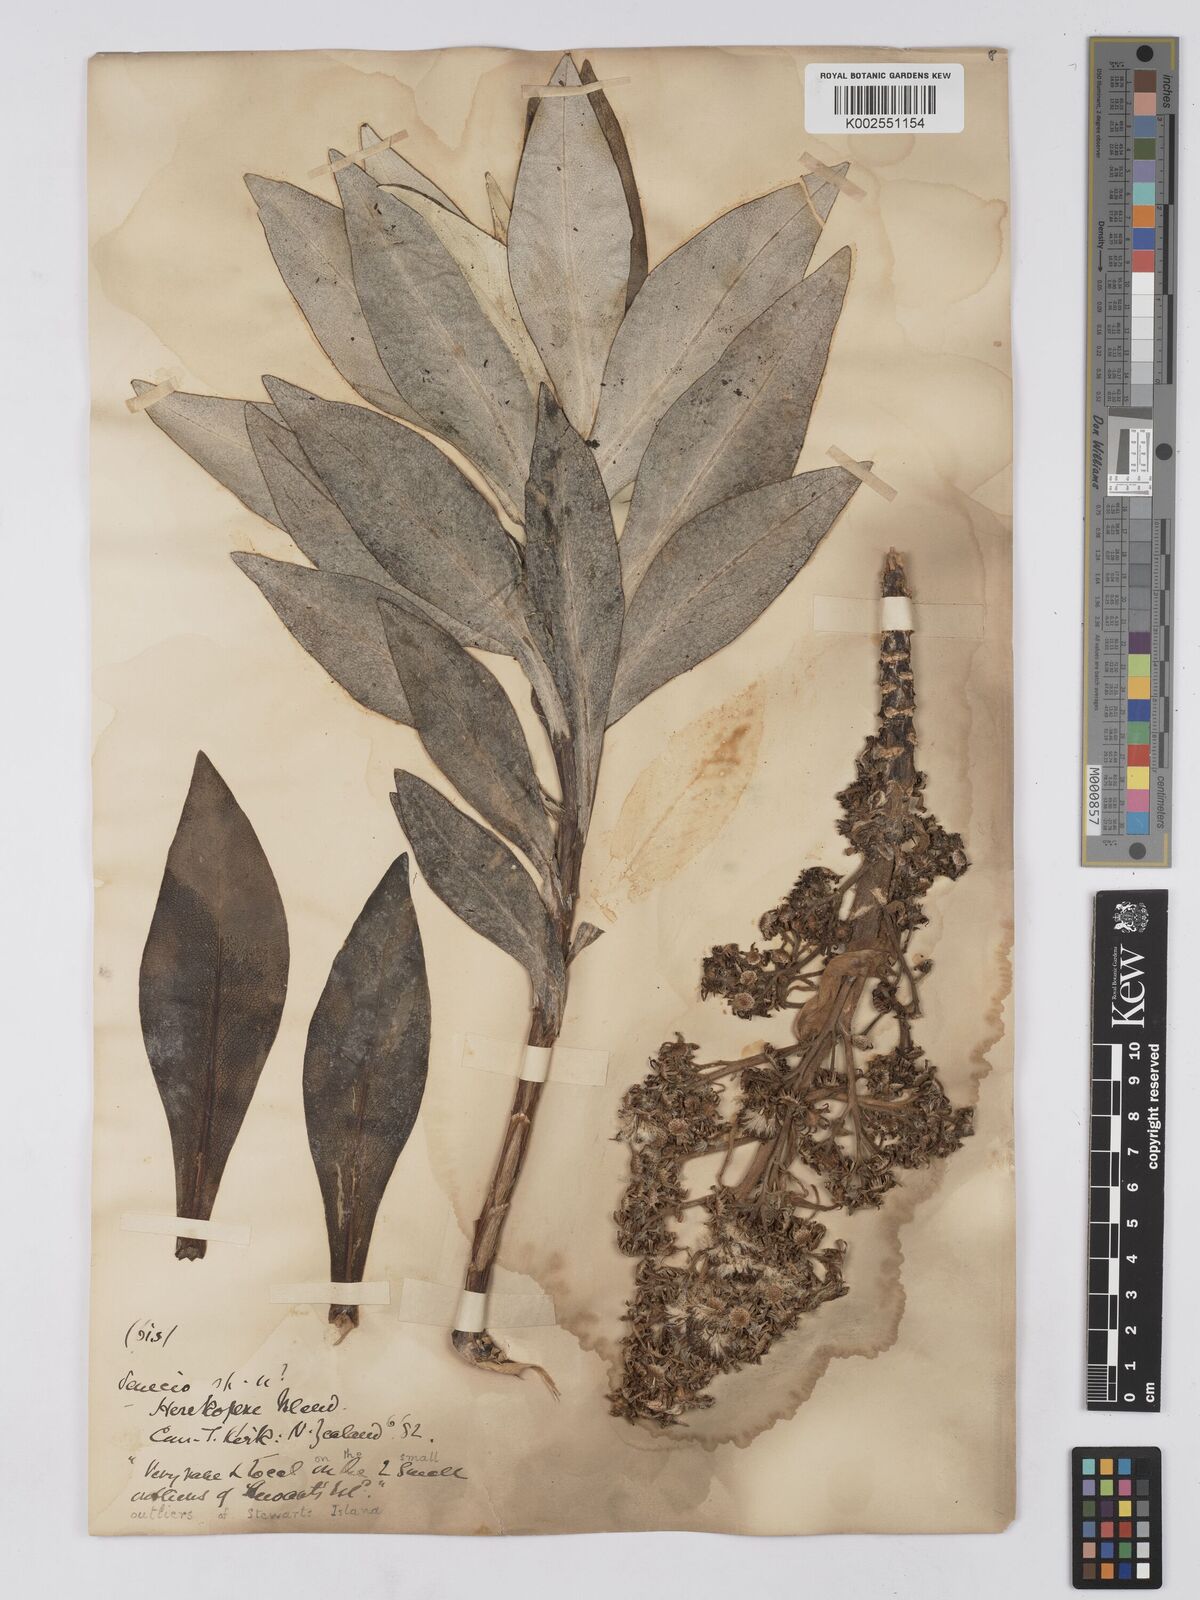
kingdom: Plantae
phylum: Tracheophyta
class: Magnoliopsida
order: Asterales
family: Asteraceae
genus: Brachyglottis
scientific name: Brachyglottis stewartiae
